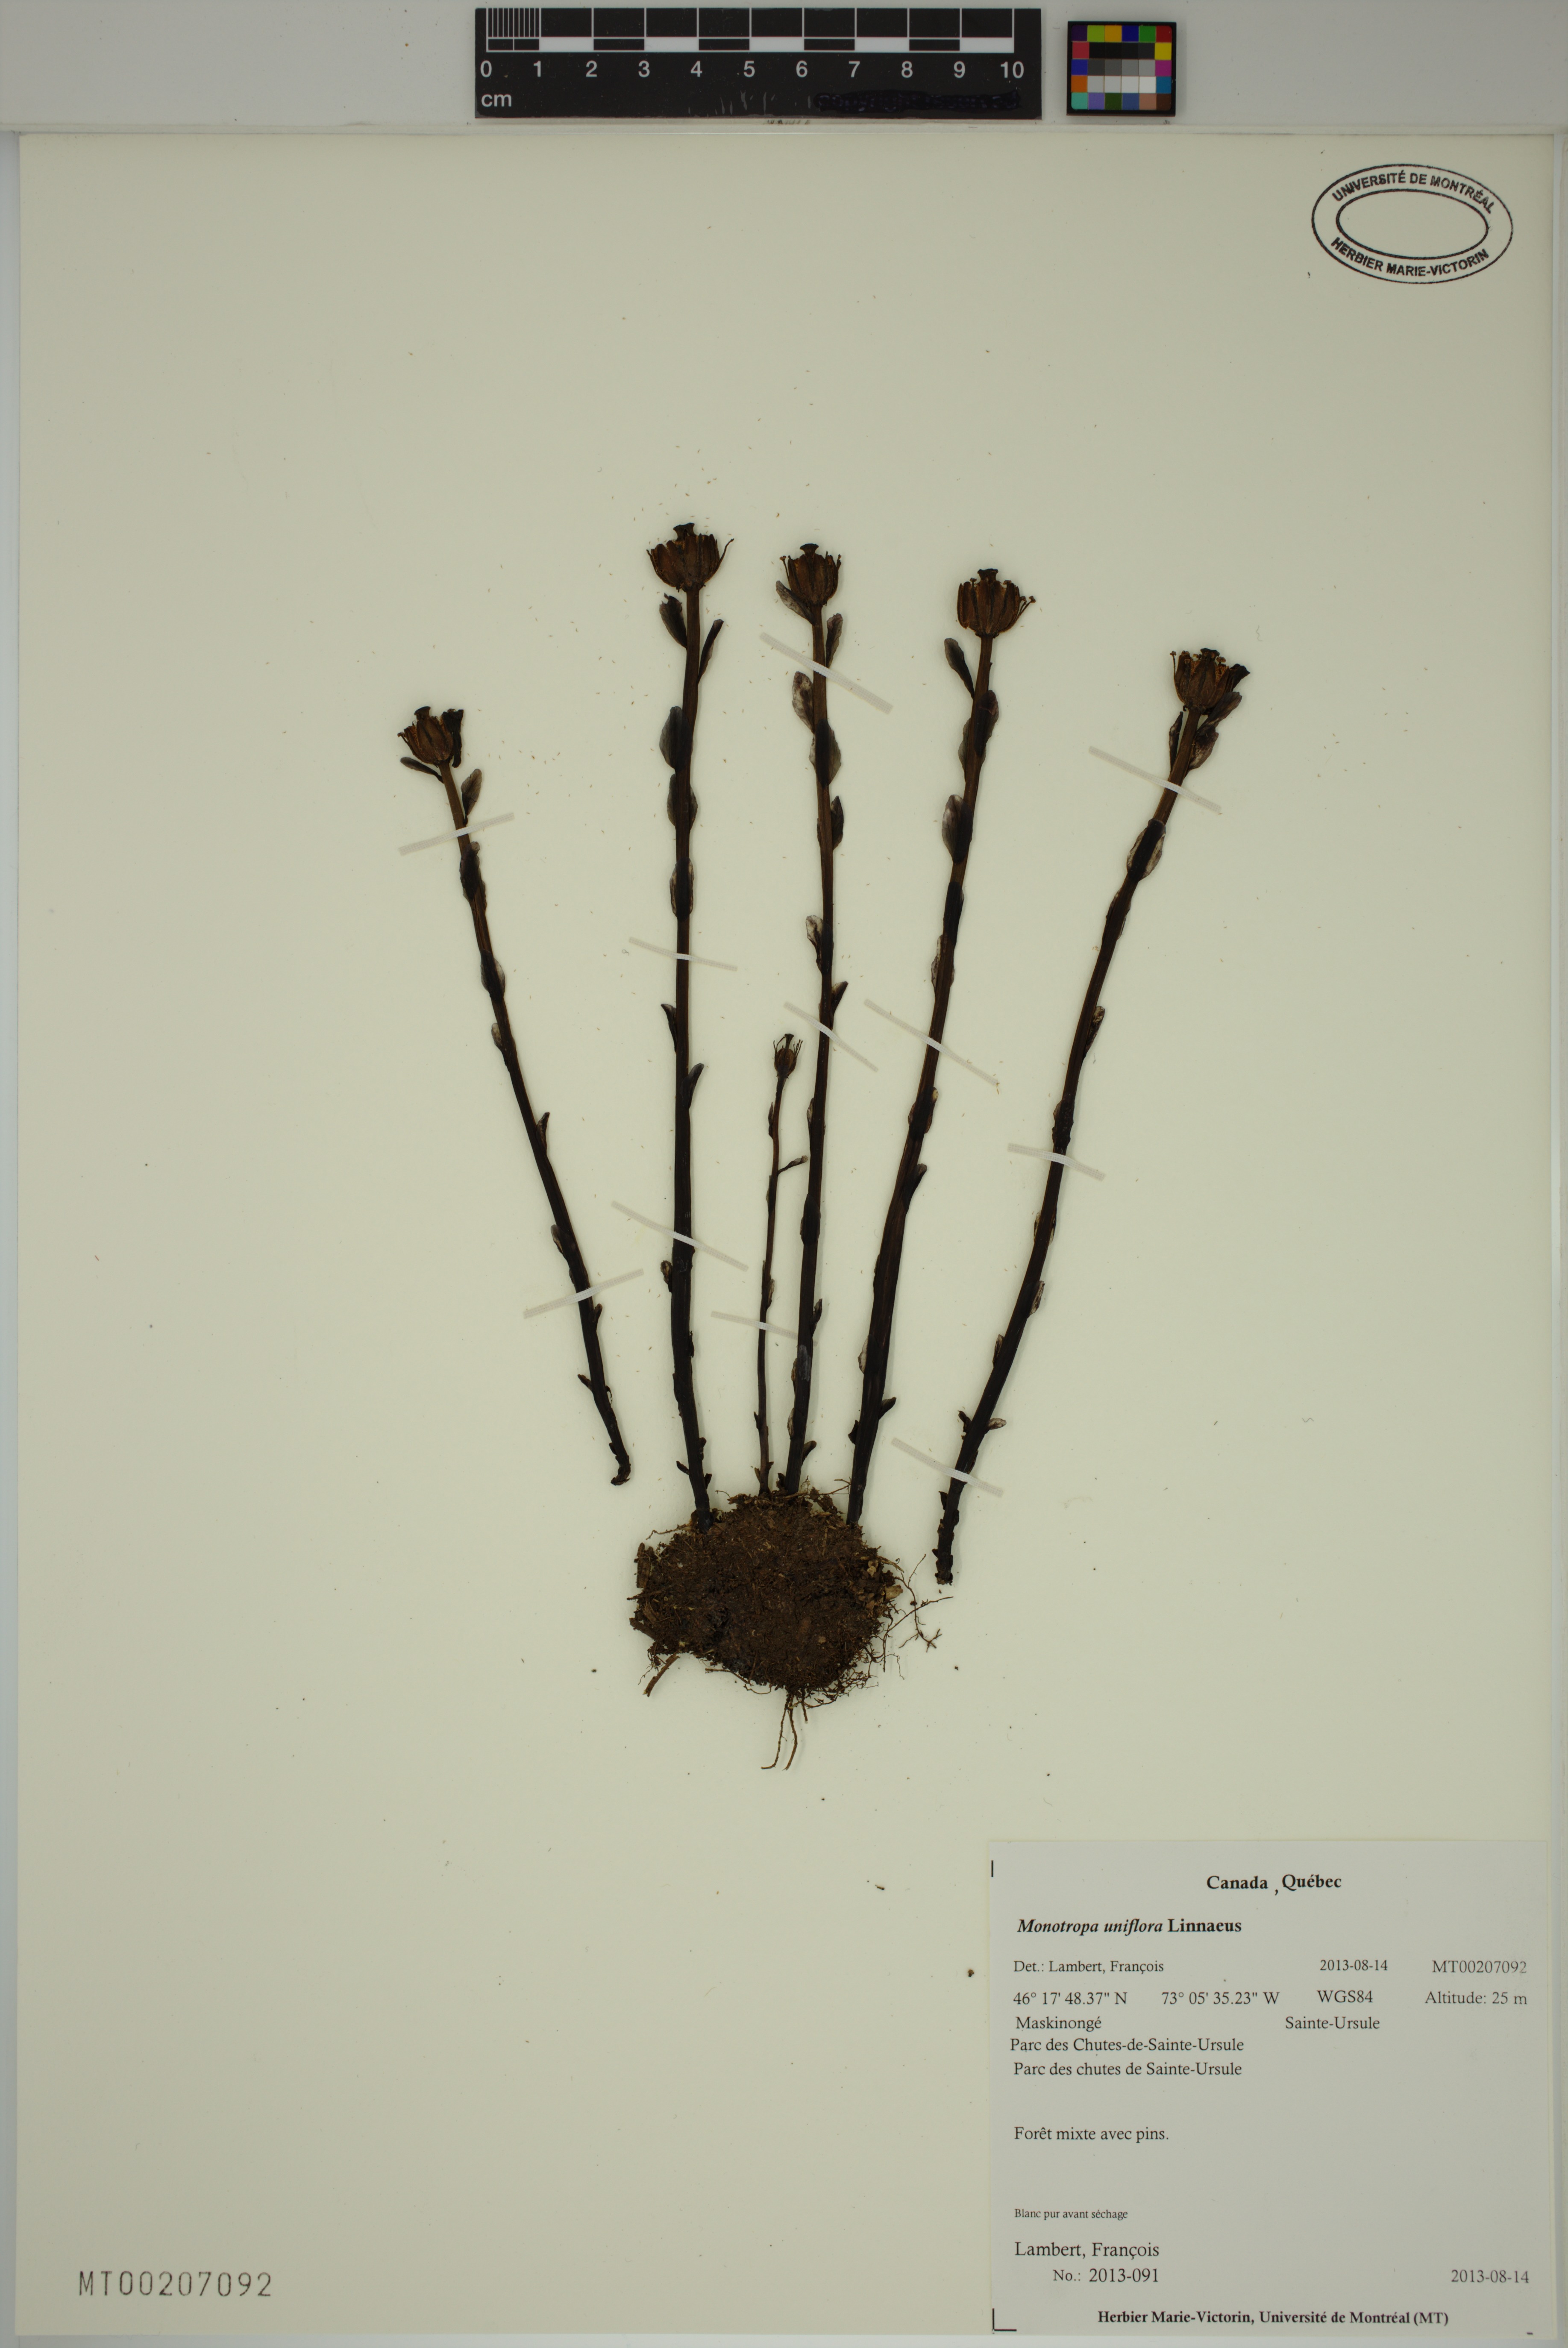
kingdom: Plantae
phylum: Tracheophyta
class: Magnoliopsida
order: Ericales
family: Ericaceae
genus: Monotropa
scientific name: Monotropa uniflora
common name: Convulsion root
